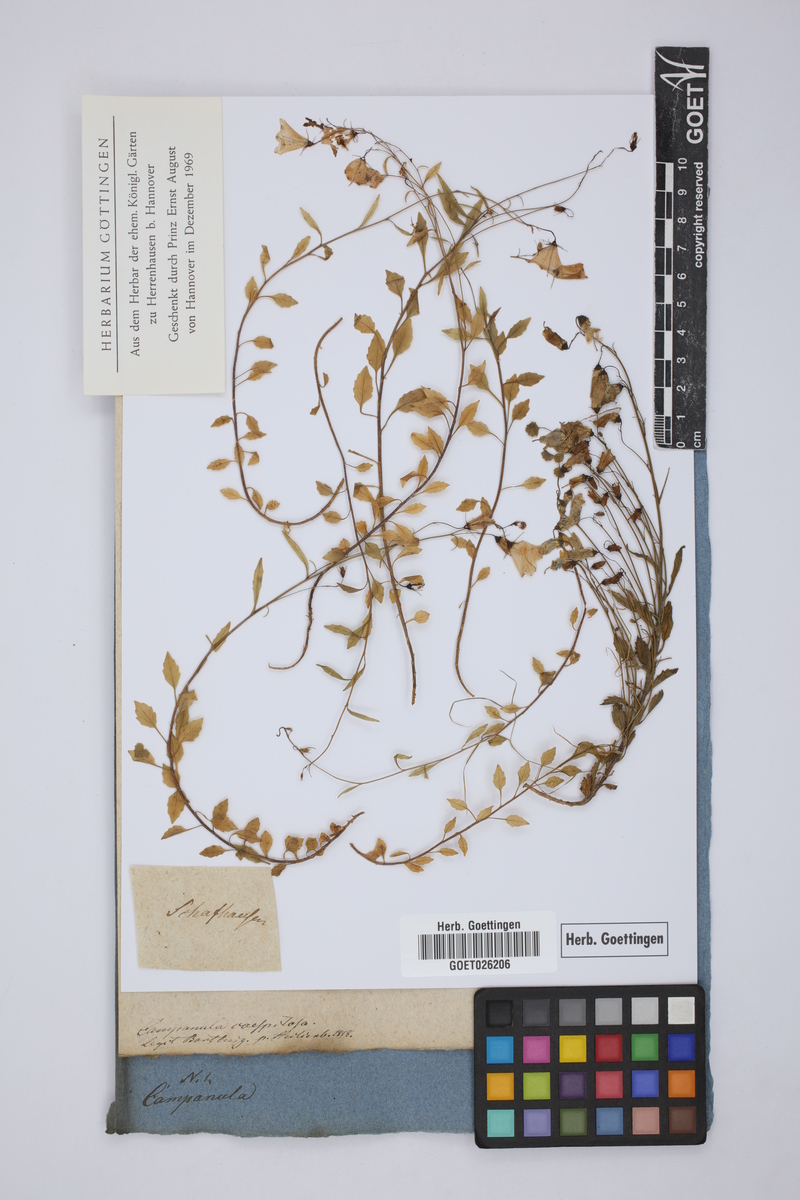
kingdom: Plantae
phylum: Tracheophyta
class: Magnoliopsida
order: Asterales
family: Campanulaceae
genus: Campanula
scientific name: Campanula cespitosa
